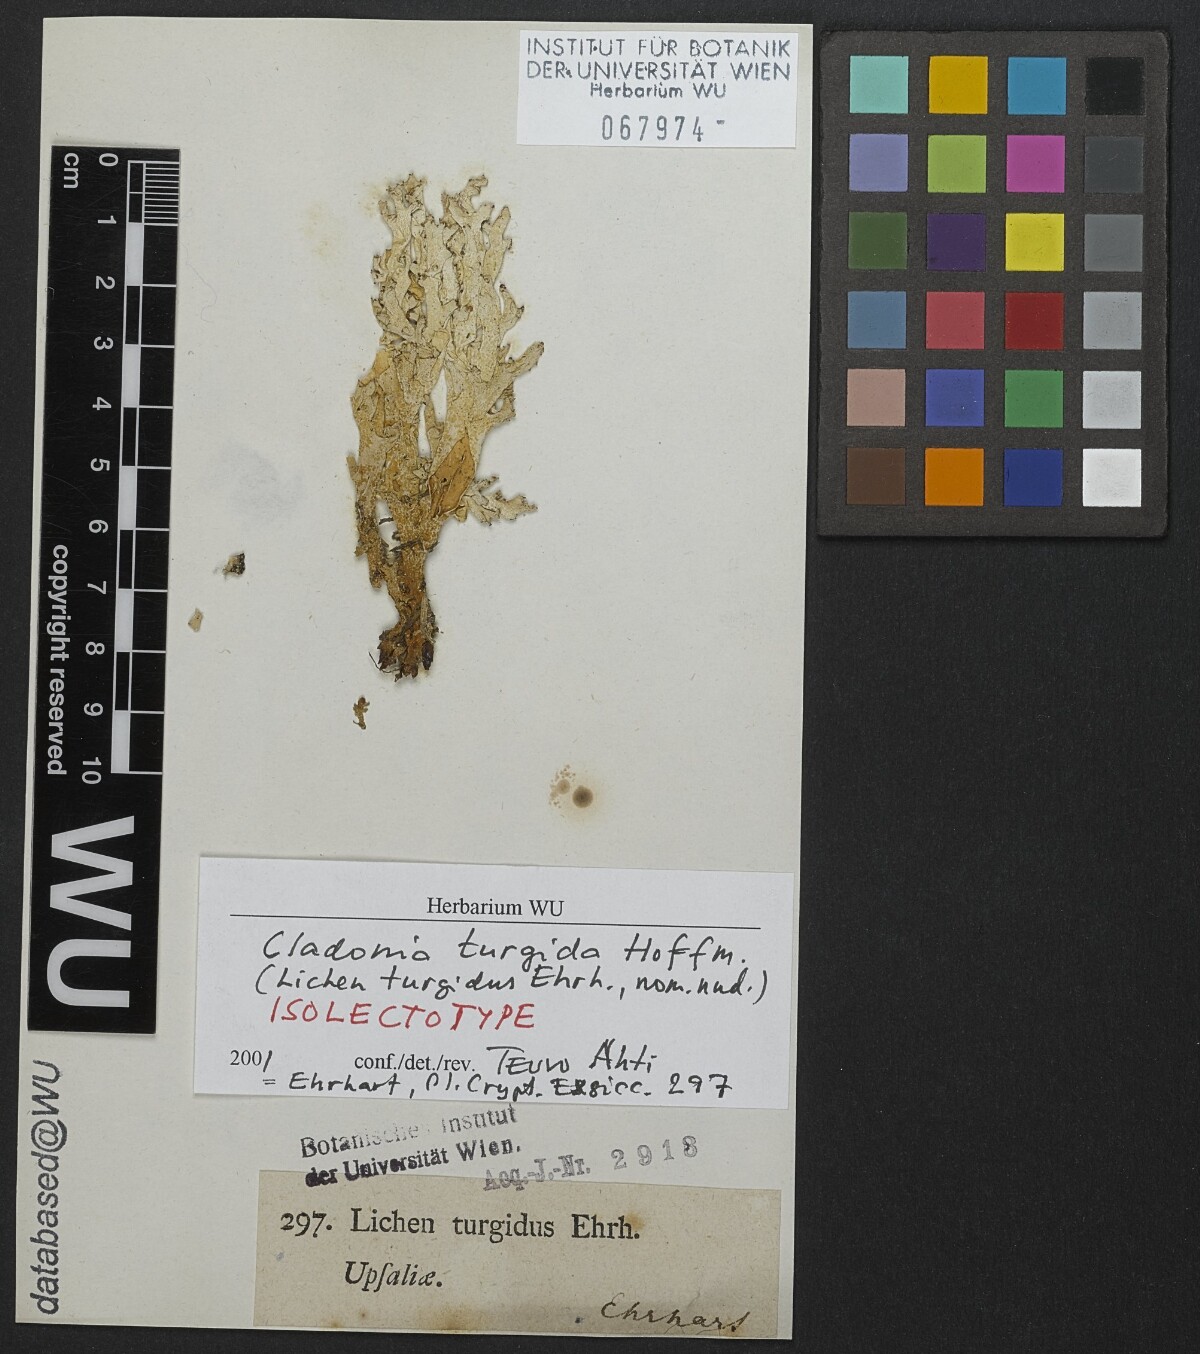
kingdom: Fungi
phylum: Ascomycota
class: Lecanoromycetes
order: Lecanorales
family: Cladoniaceae
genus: Cladonia
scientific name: Cladonia turgida
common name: Crazy scale lichen
